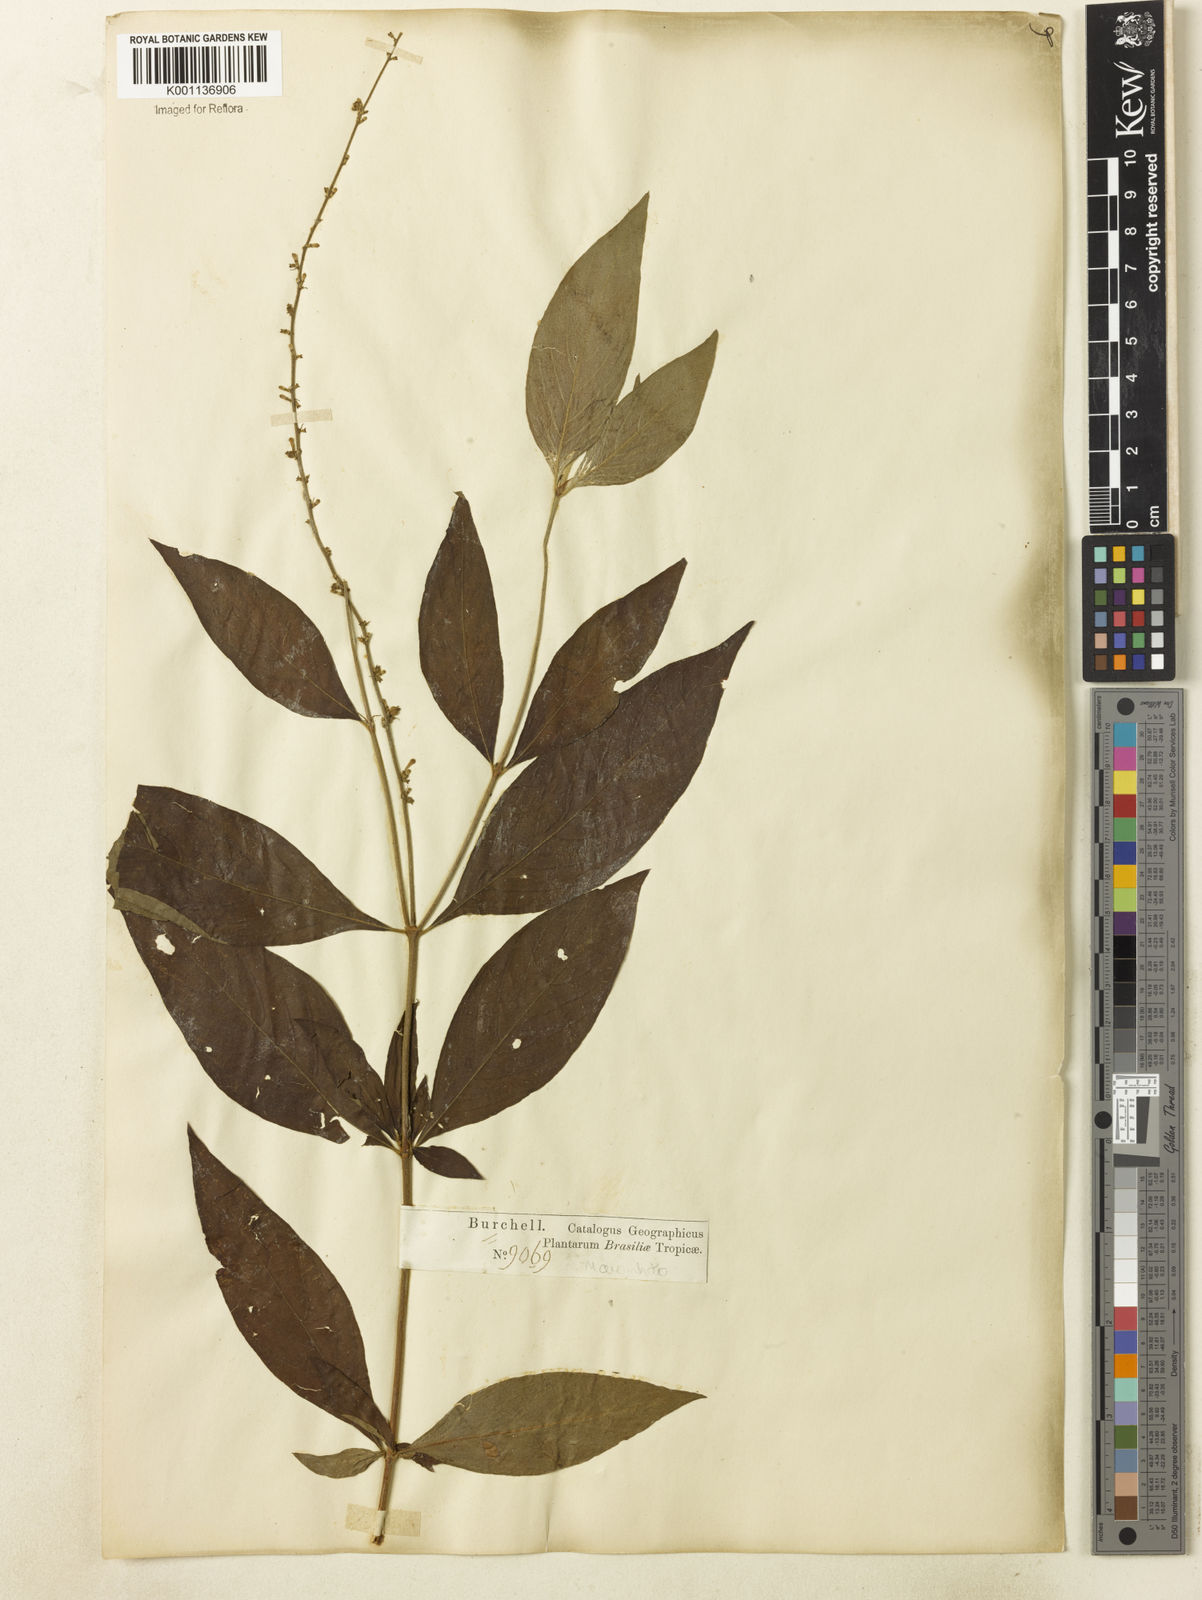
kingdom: Plantae
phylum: Tracheophyta
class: Magnoliopsida
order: Gentianales
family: Rubiaceae
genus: Gonzalagunia
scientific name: Gonzalagunia dicocca
